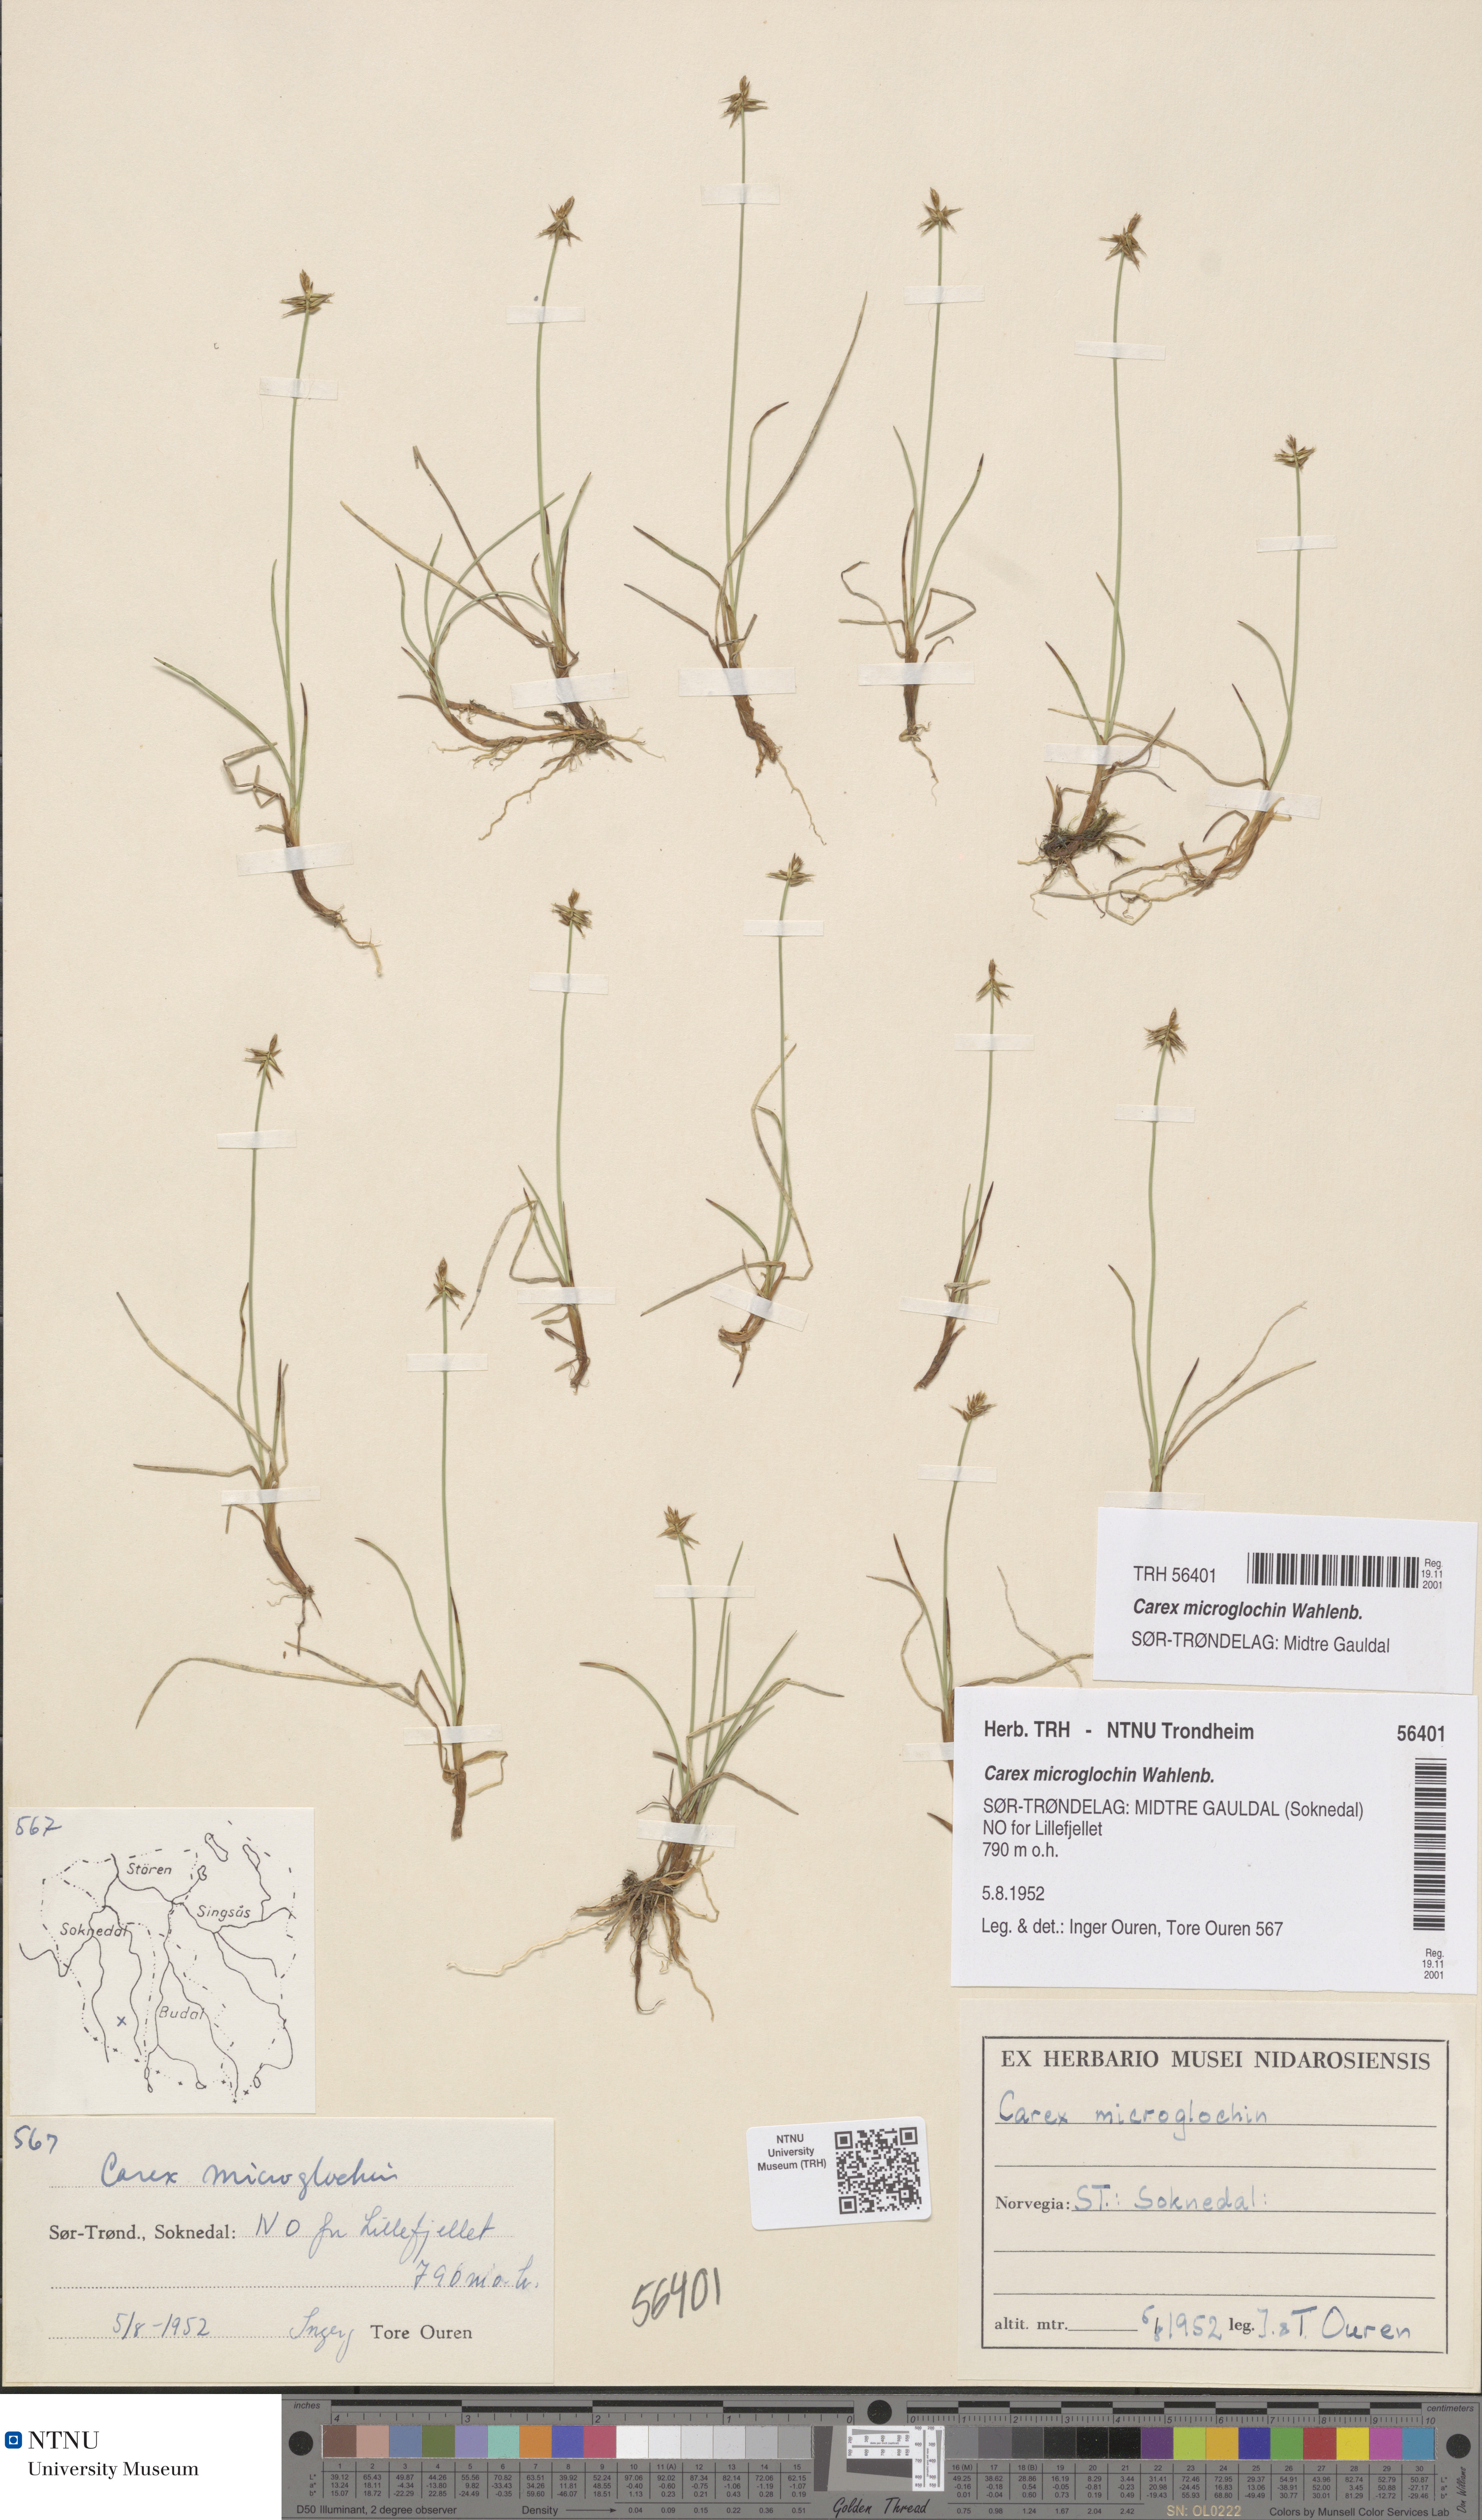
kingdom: Plantae
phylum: Tracheophyta
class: Liliopsida
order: Poales
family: Cyperaceae
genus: Carex
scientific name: Carex microglochin
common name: Bristle sedge
